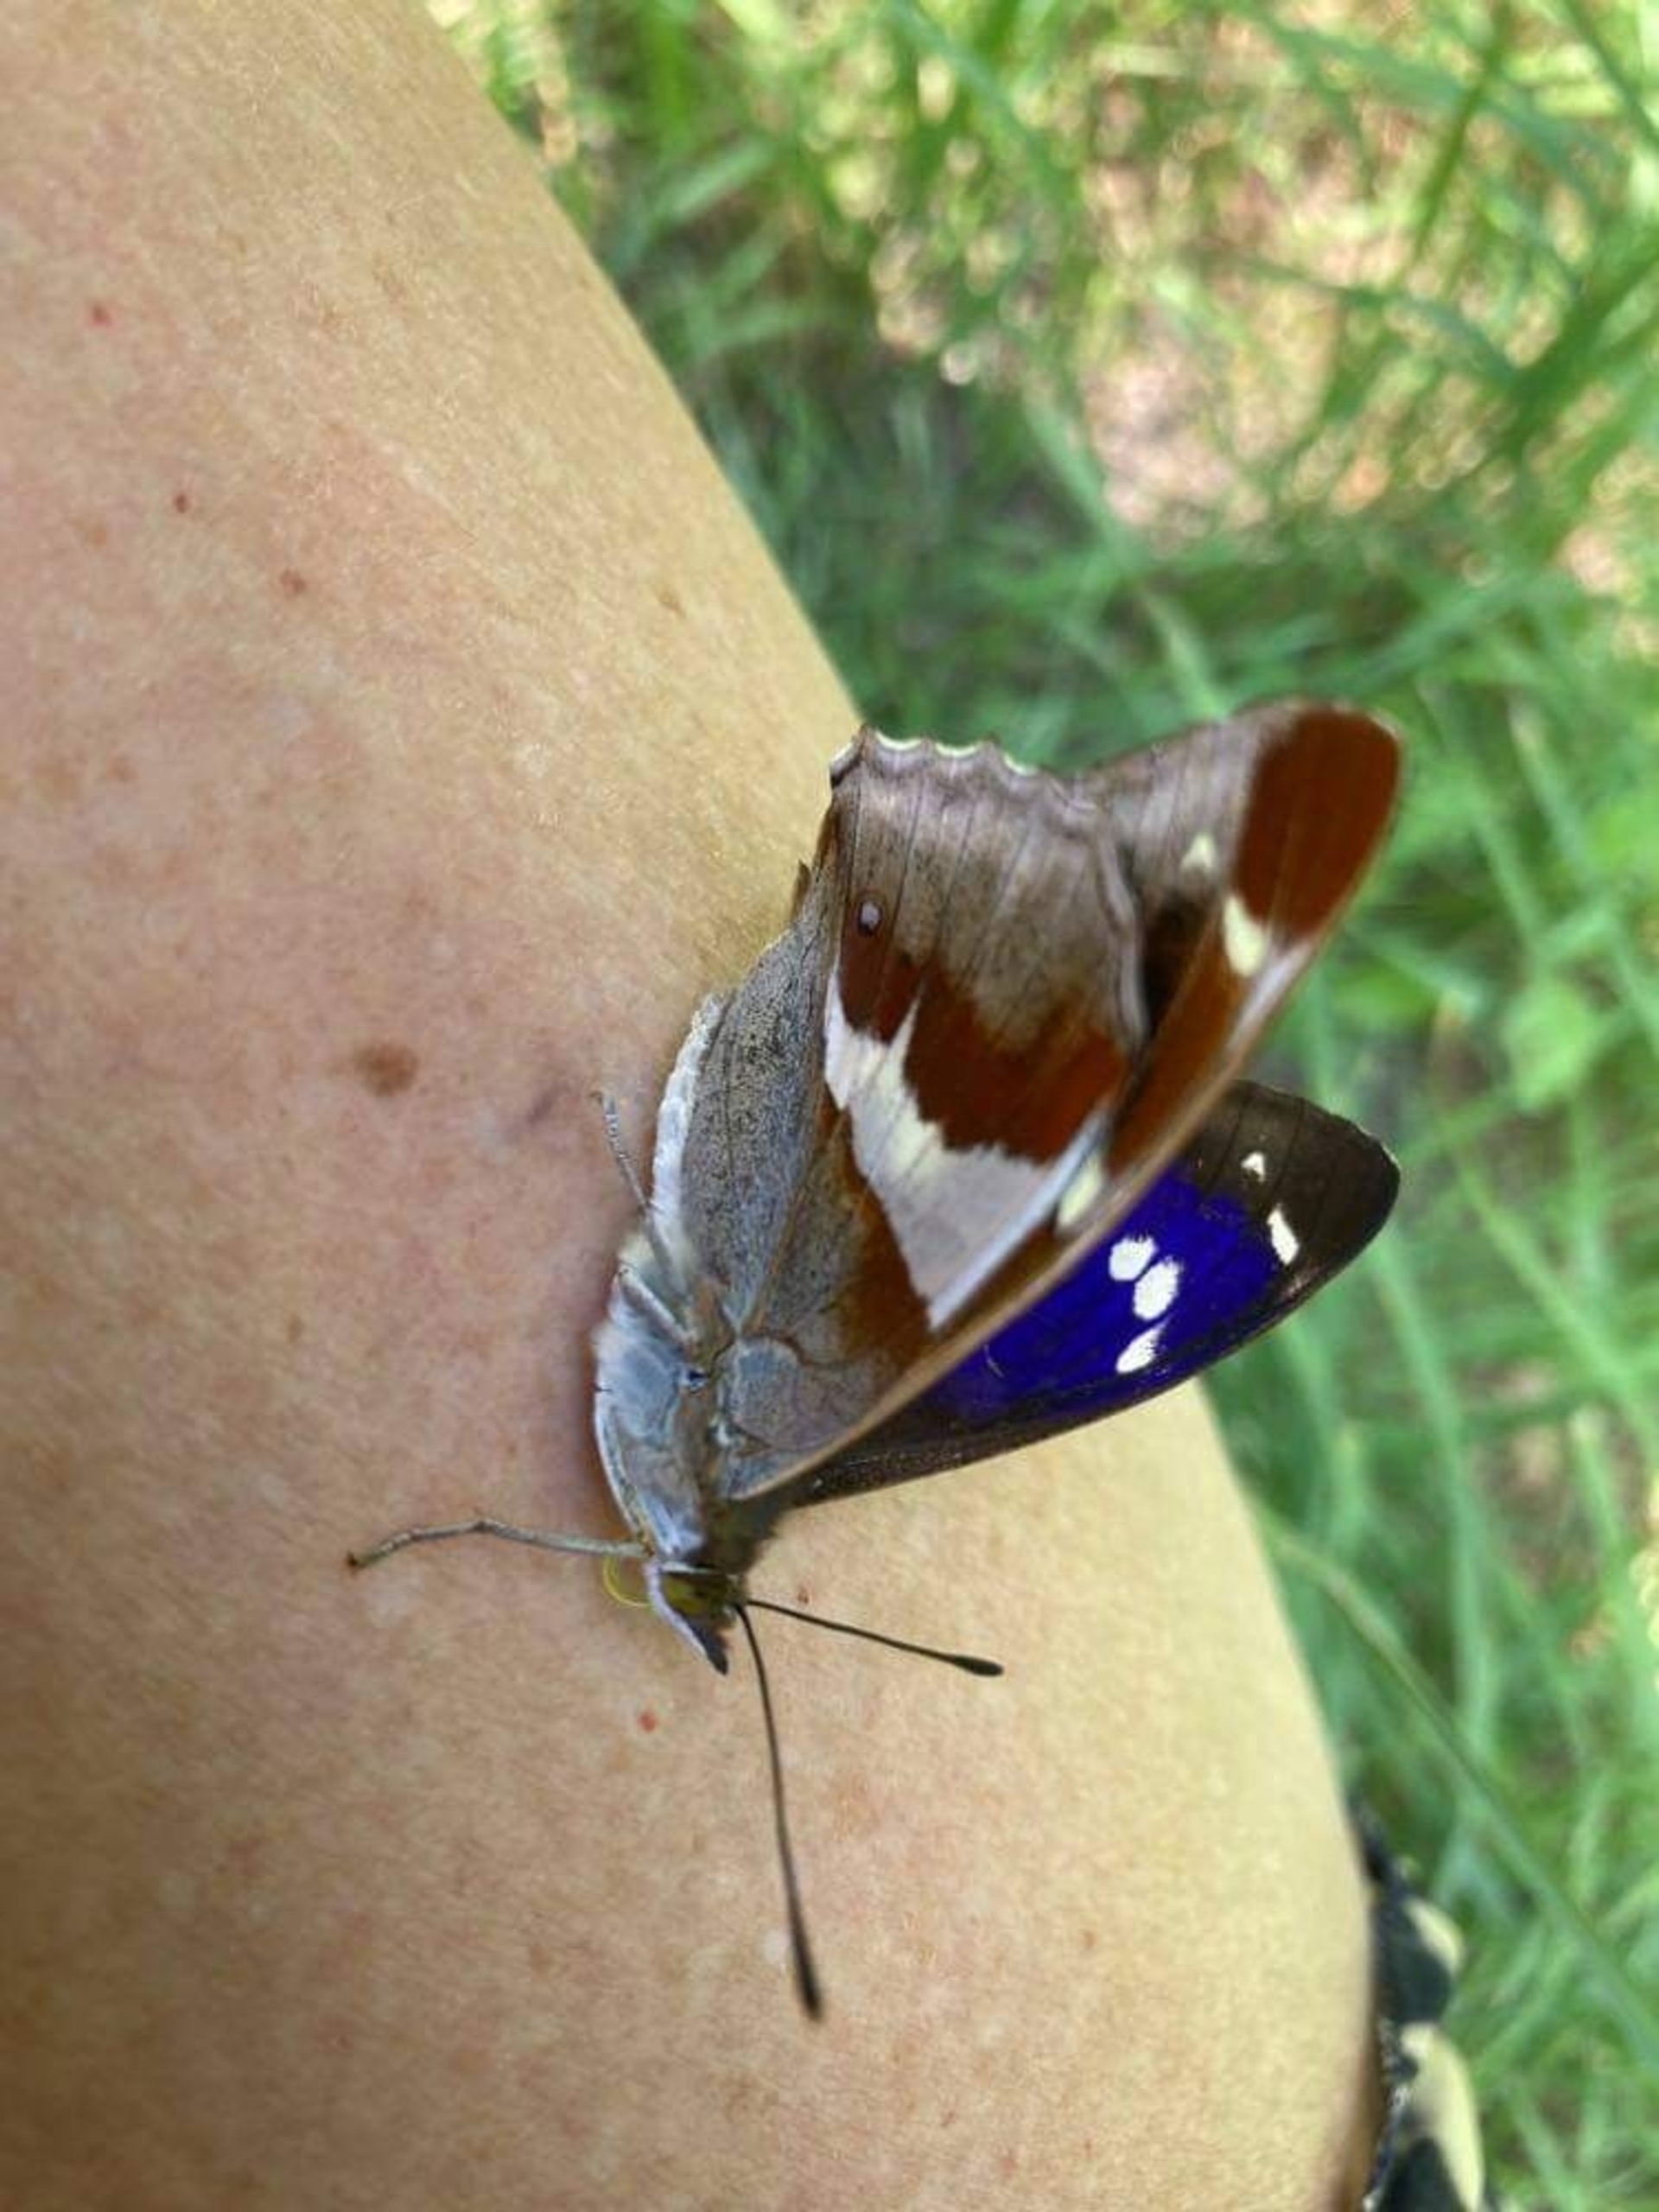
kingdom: Animalia
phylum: Arthropoda
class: Insecta
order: Lepidoptera
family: Nymphalidae
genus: Apatura
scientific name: Apatura iris
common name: Iris
